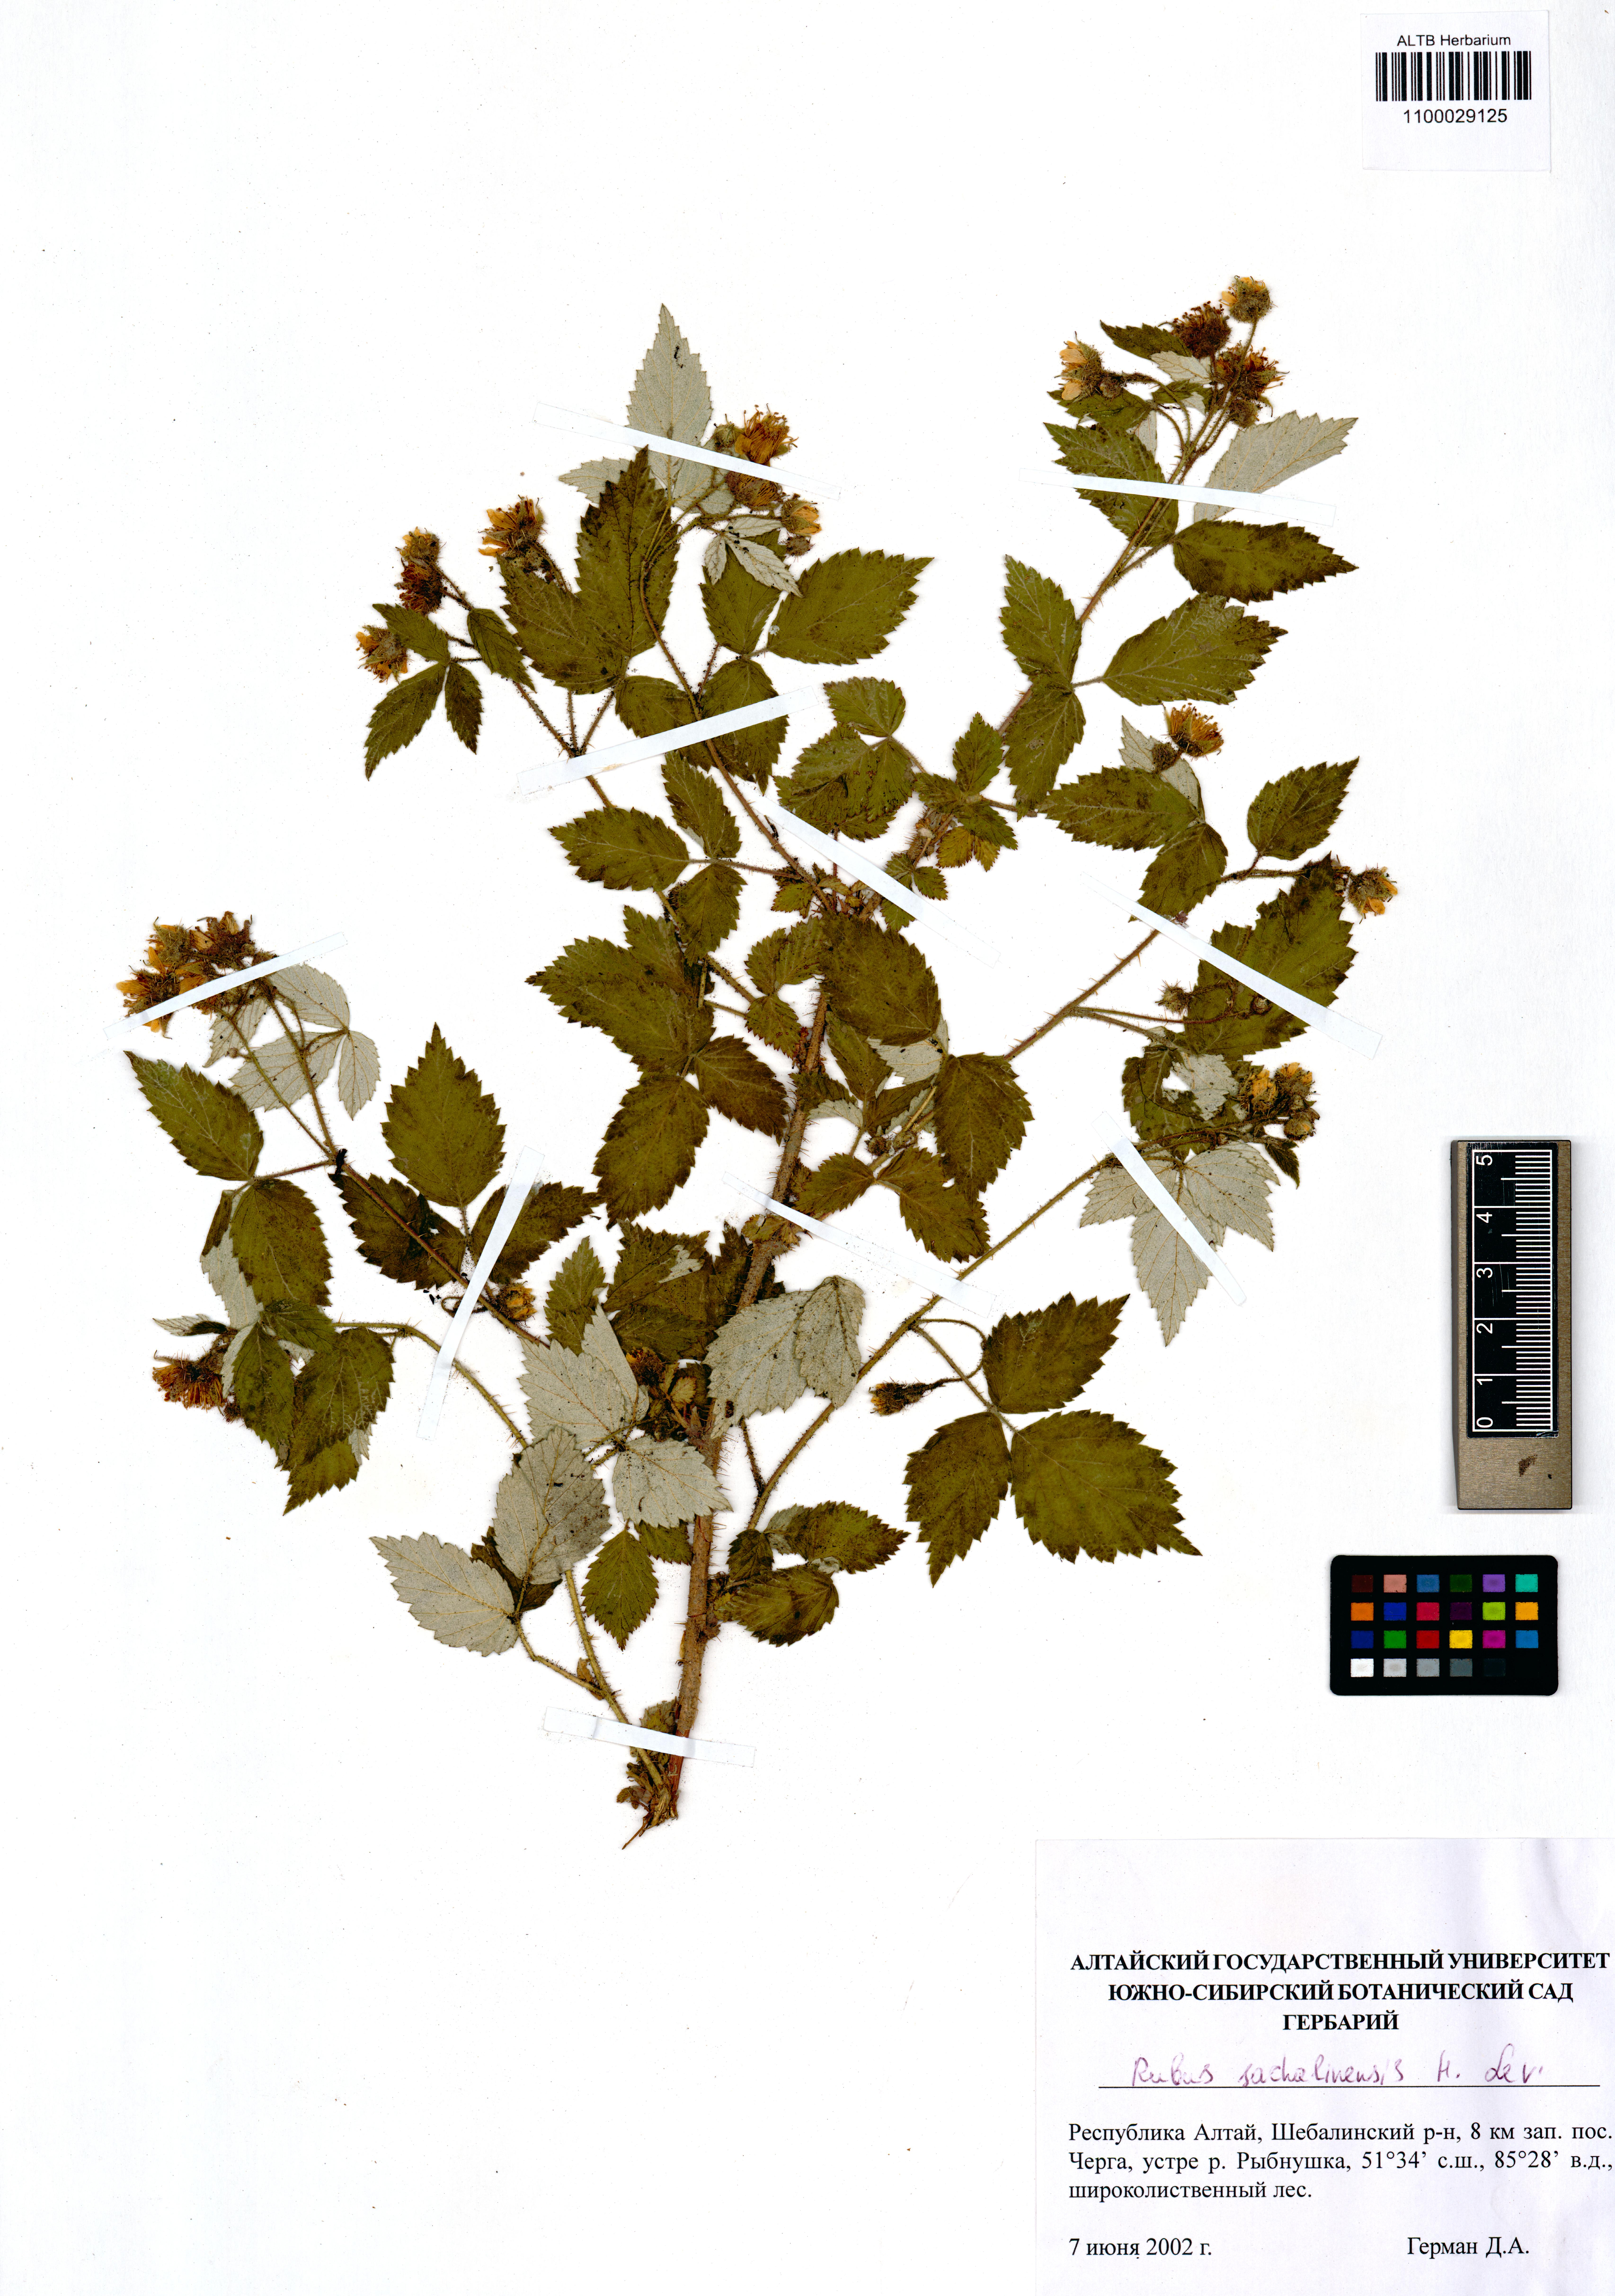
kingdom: Plantae
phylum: Tracheophyta
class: Magnoliopsida
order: Rosales
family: Rosaceae
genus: Rubus
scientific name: Rubus sachalinensis
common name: Red raspberry
